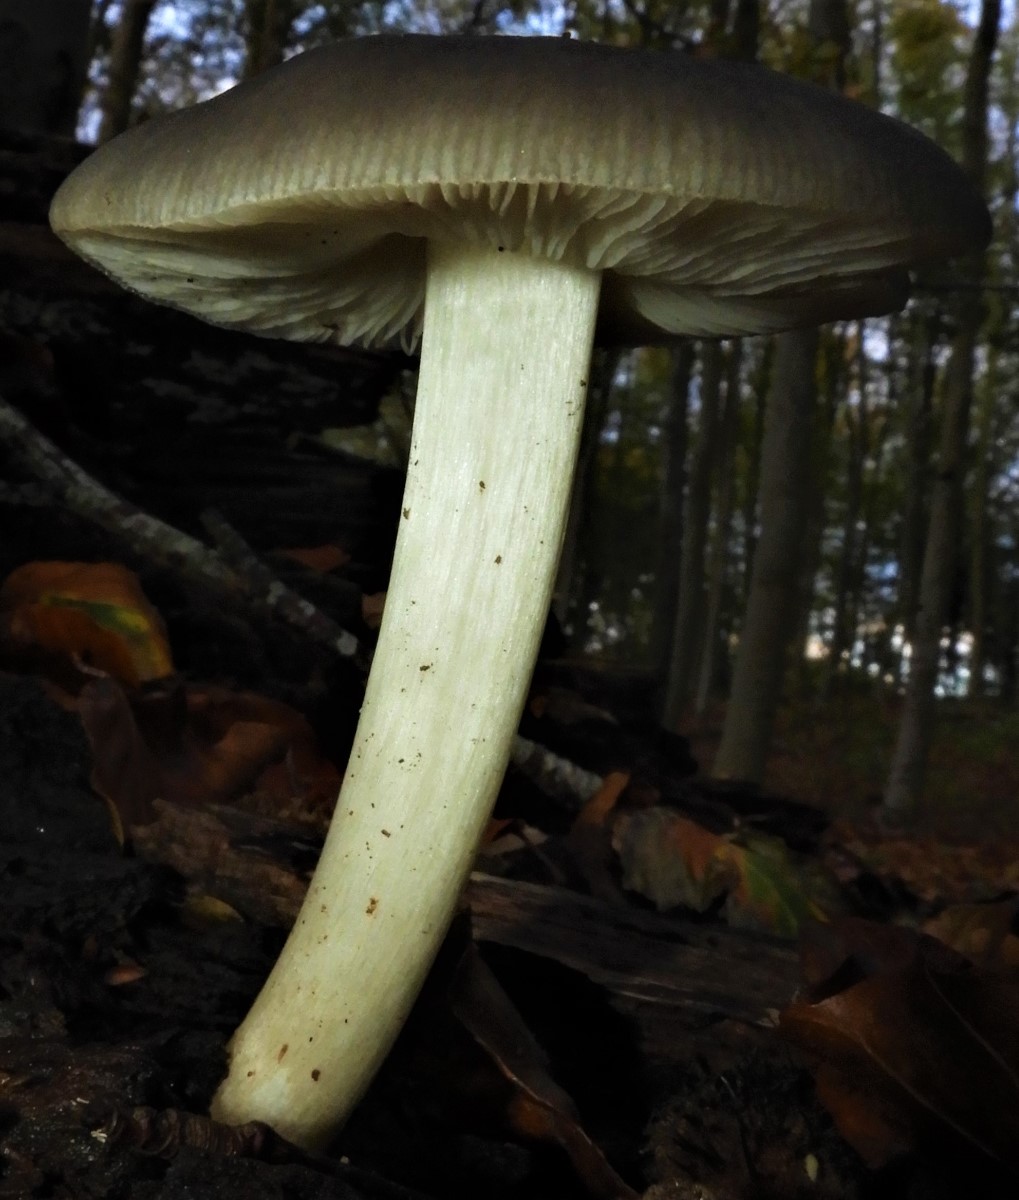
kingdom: Fungi
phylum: Basidiomycota
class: Agaricomycetes
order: Agaricales
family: Entolomataceae
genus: Entoloma
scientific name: Entoloma
